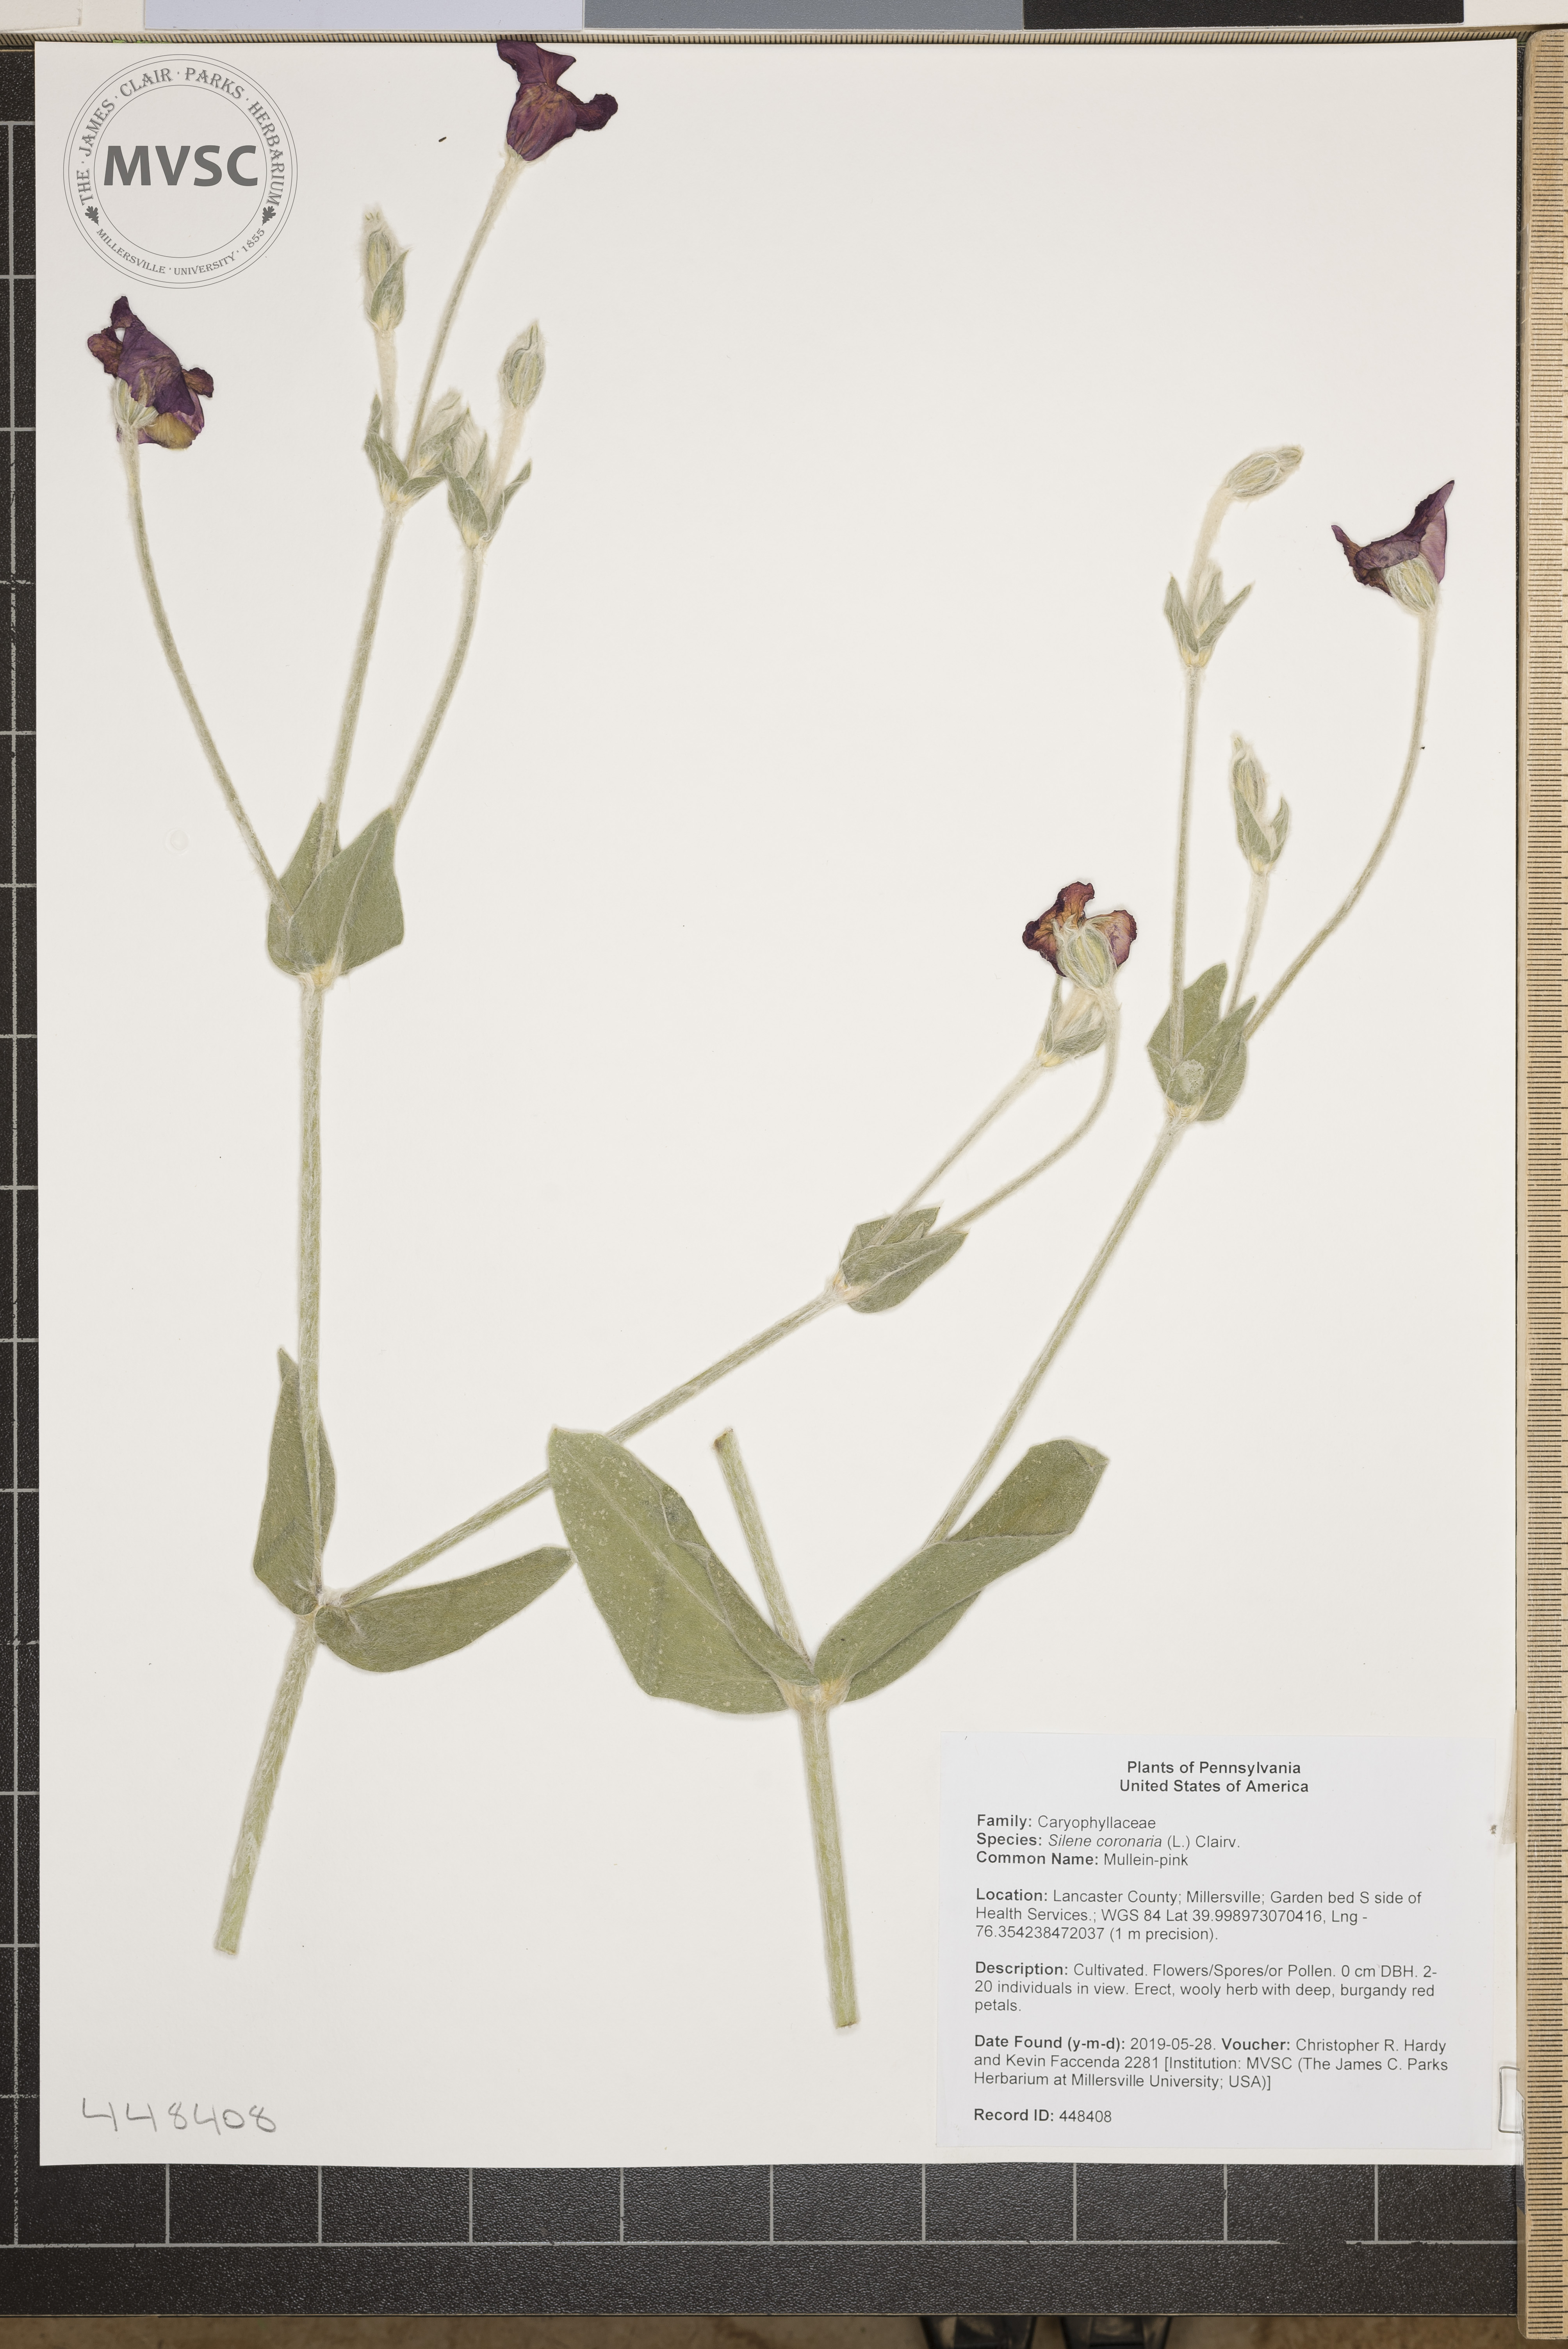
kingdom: Plantae
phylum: Tracheophyta
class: Magnoliopsida
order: Caryophyllales
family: Caryophyllaceae
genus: Silene
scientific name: Silene coronaria
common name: Mullein-pink
